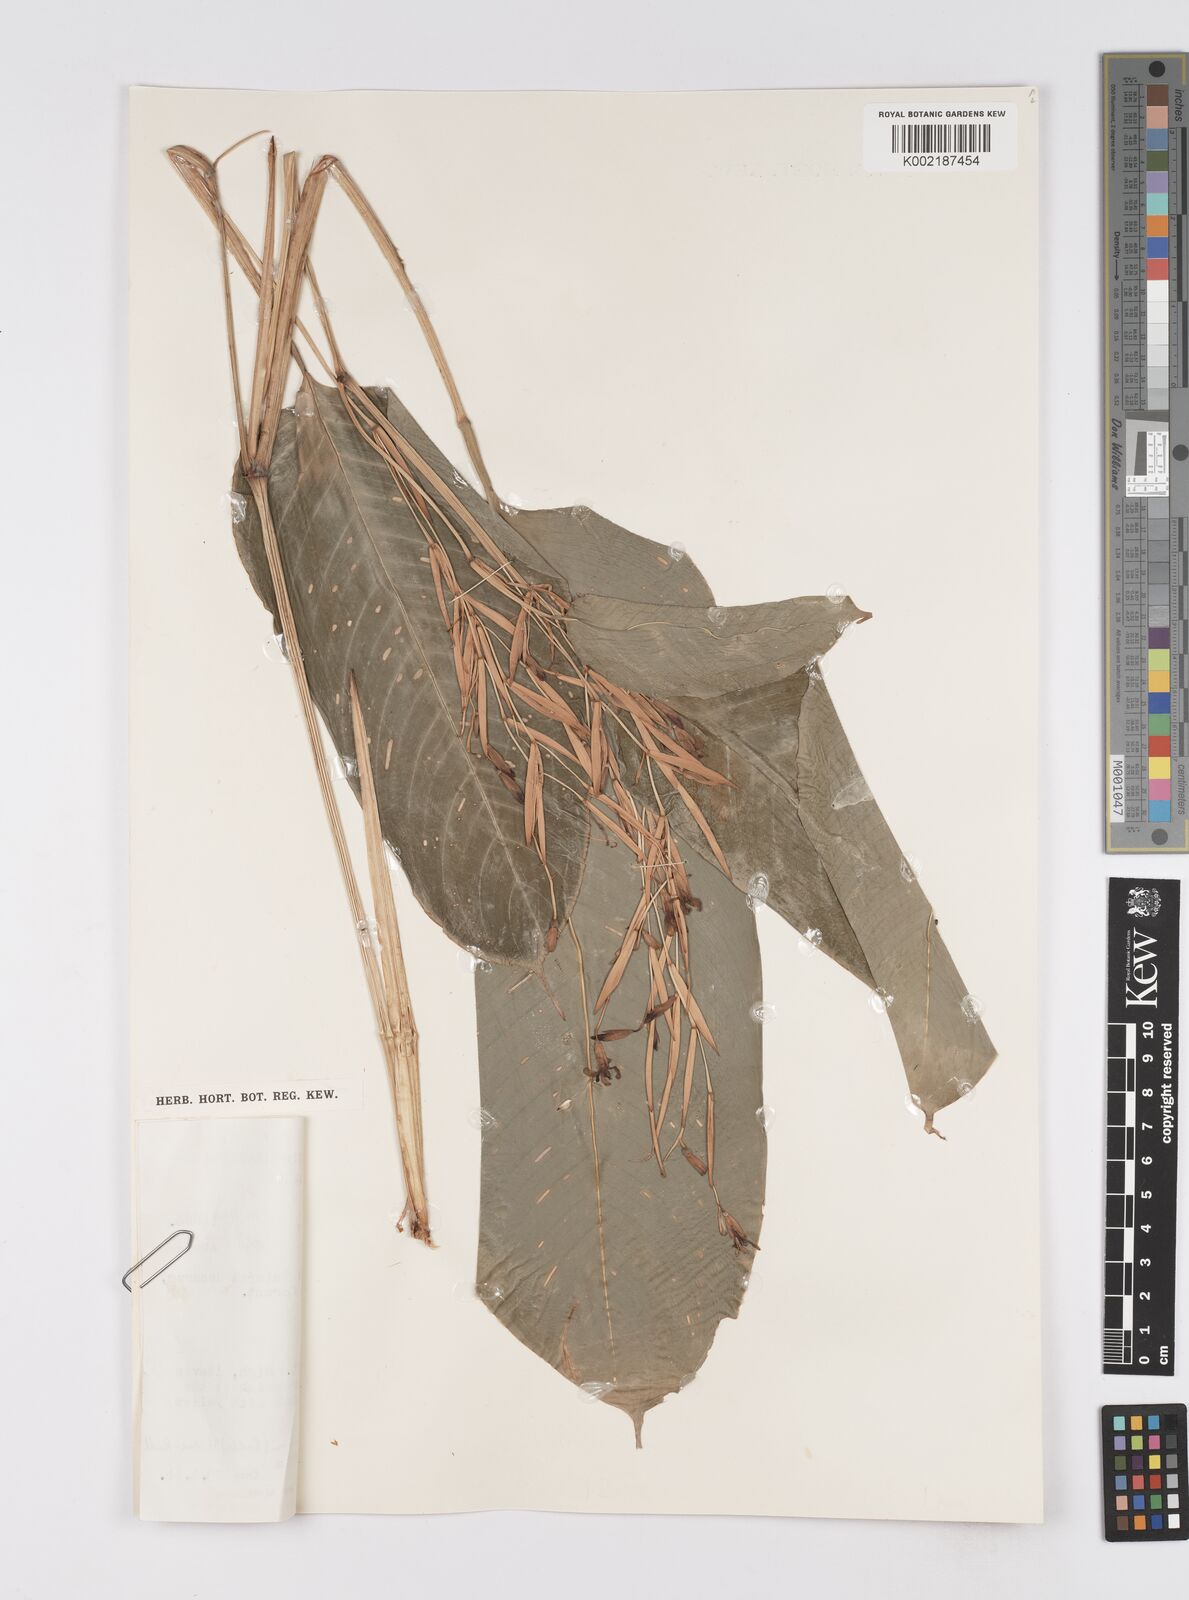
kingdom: Plantae
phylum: Tracheophyta
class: Liliopsida
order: Zingiberales
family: Marantaceae
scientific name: Marantaceae
